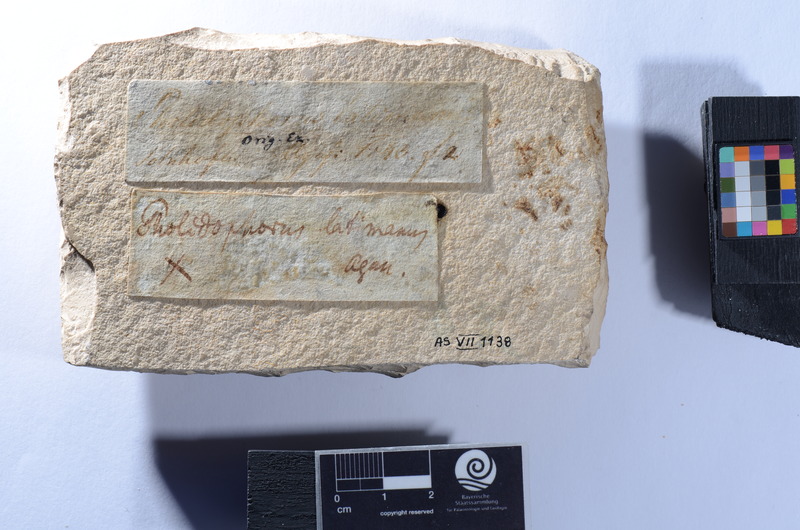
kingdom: Animalia
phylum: Chordata
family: Ophiopsiellidae
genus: Furo
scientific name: Furo latimanus
